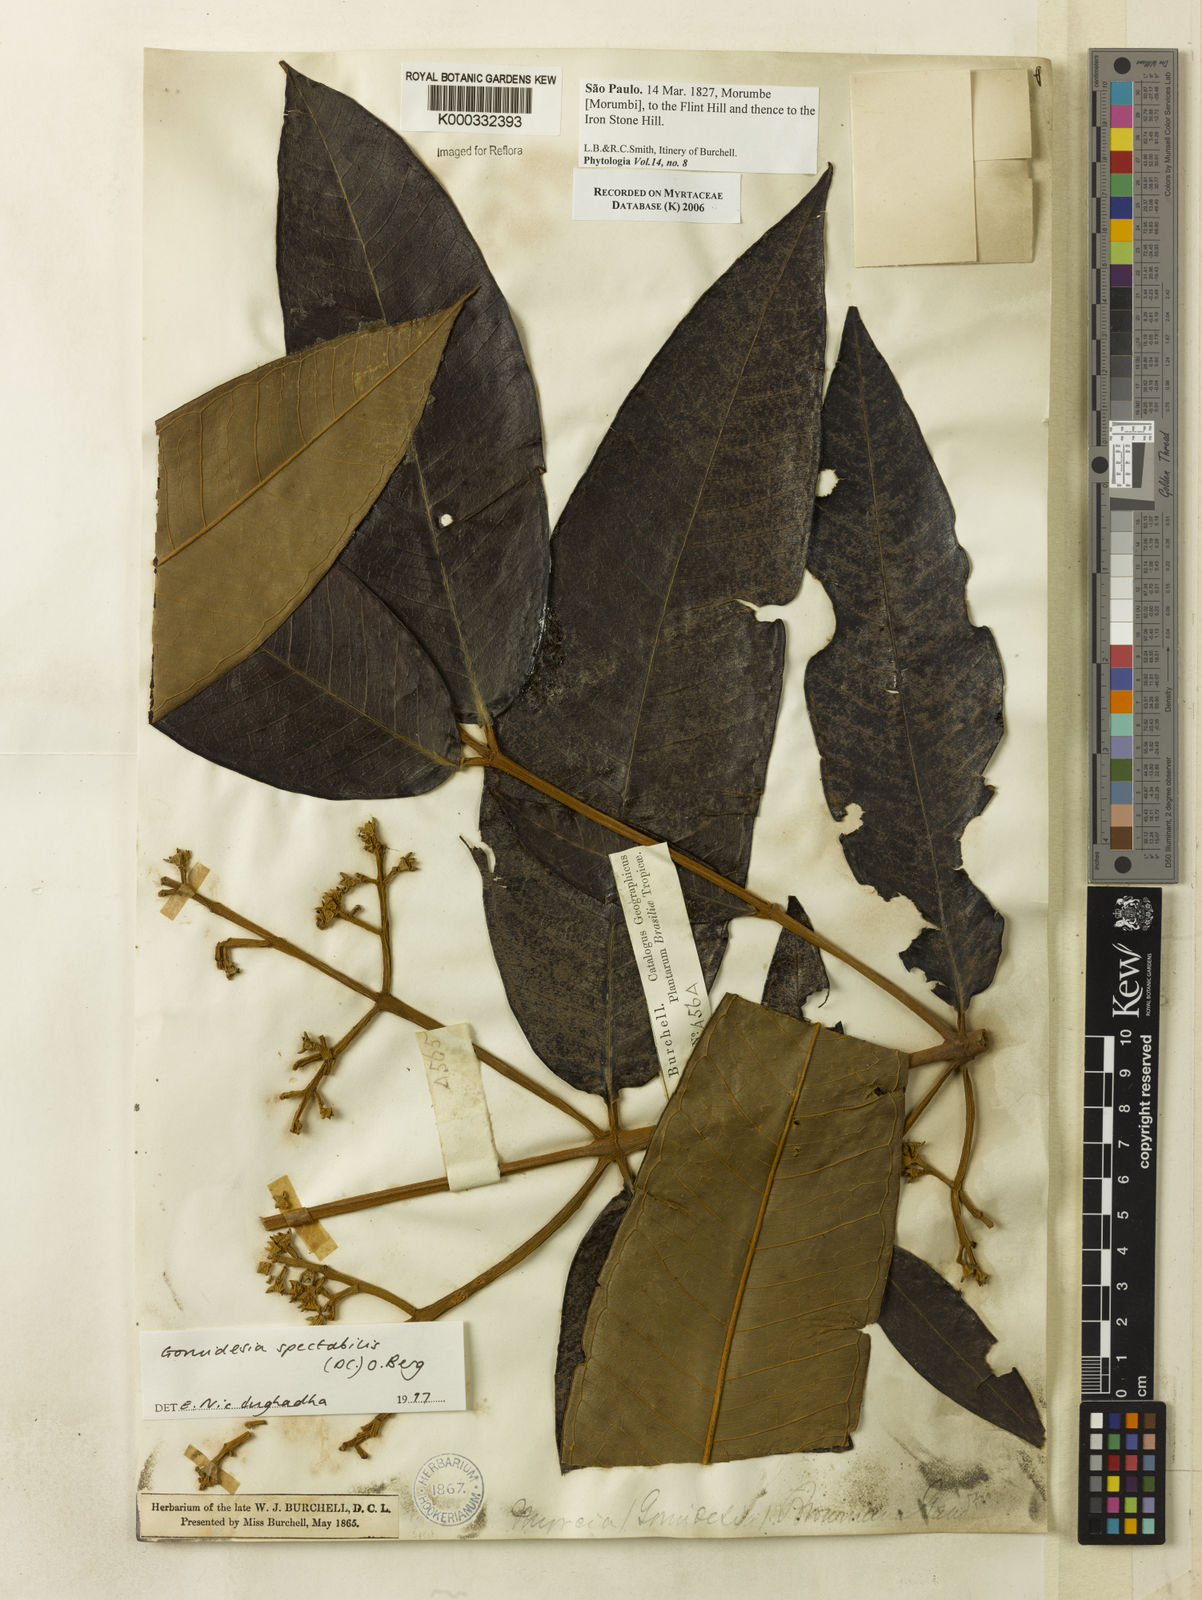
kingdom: Plantae
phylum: Tracheophyta
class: Magnoliopsida
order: Myrtales
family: Myrtaceae
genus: Myrcia
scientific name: Myrcia spectabilis
